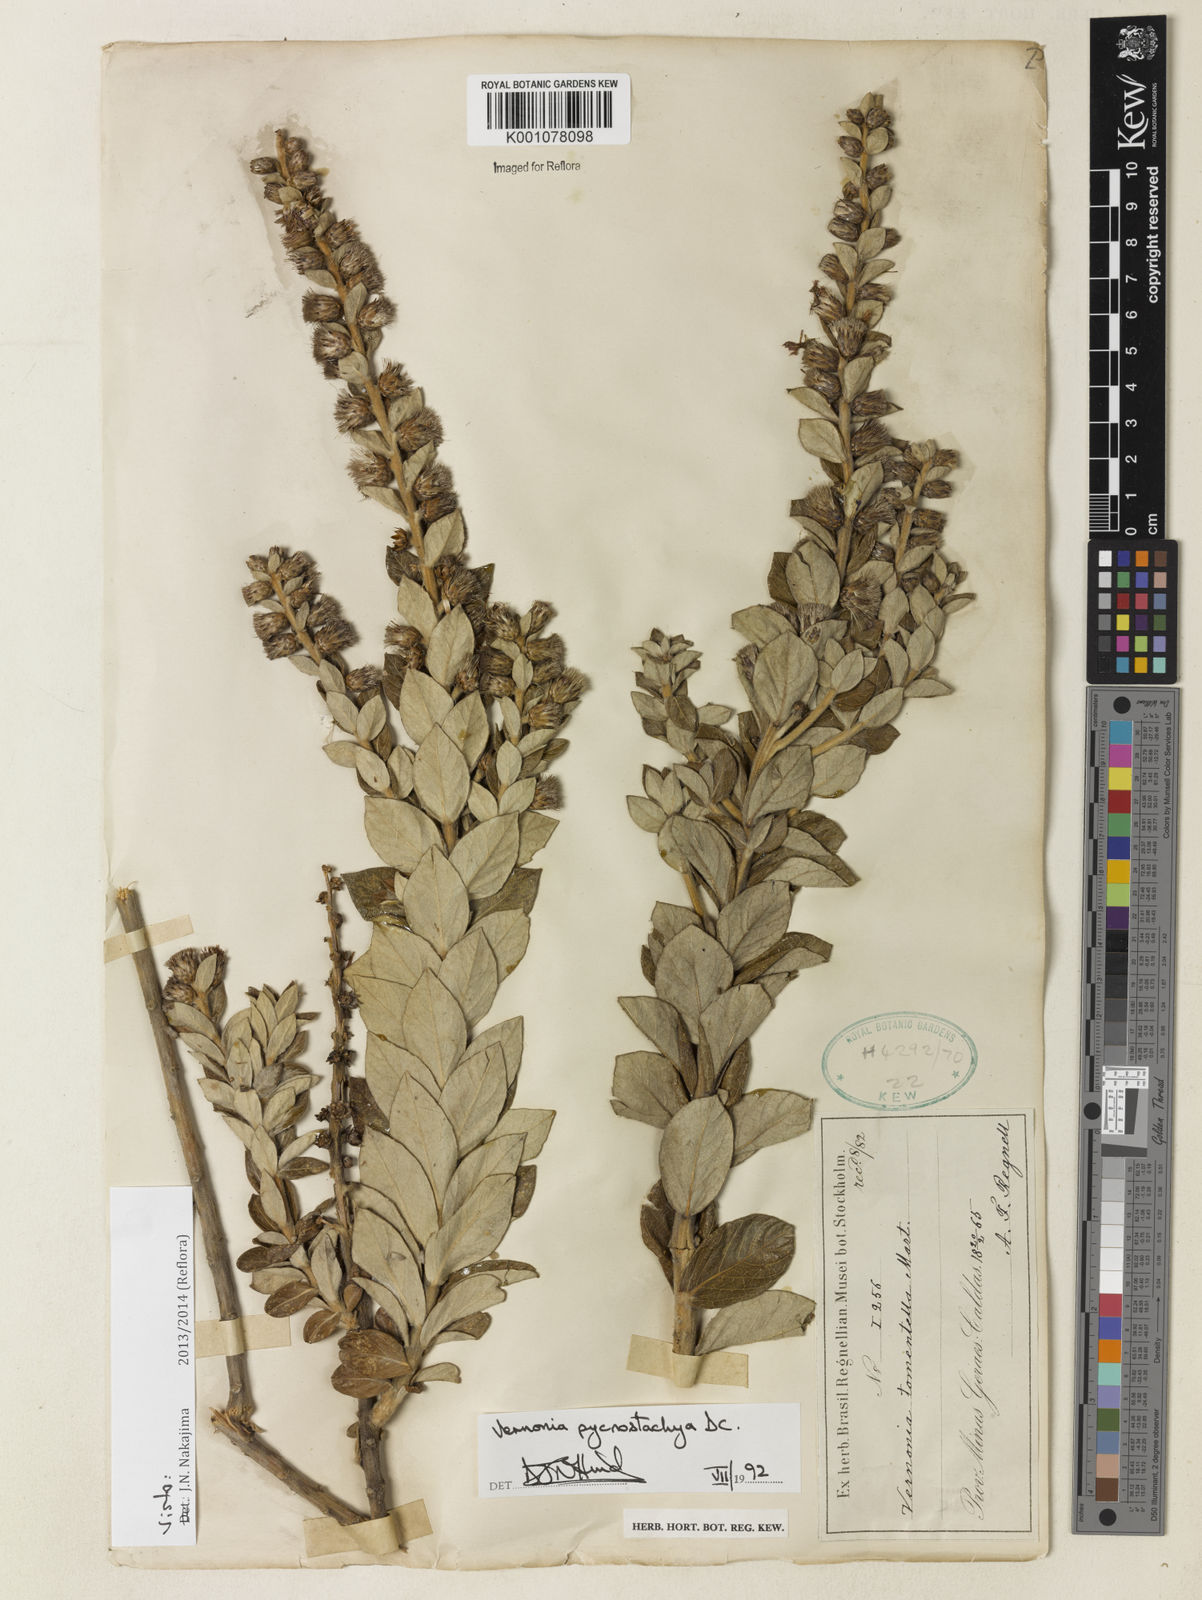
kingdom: Plantae
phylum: Tracheophyta
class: Magnoliopsida
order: Asterales
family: Asteraceae
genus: Lessingianthus
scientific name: Lessingianthus pycnostachyus
